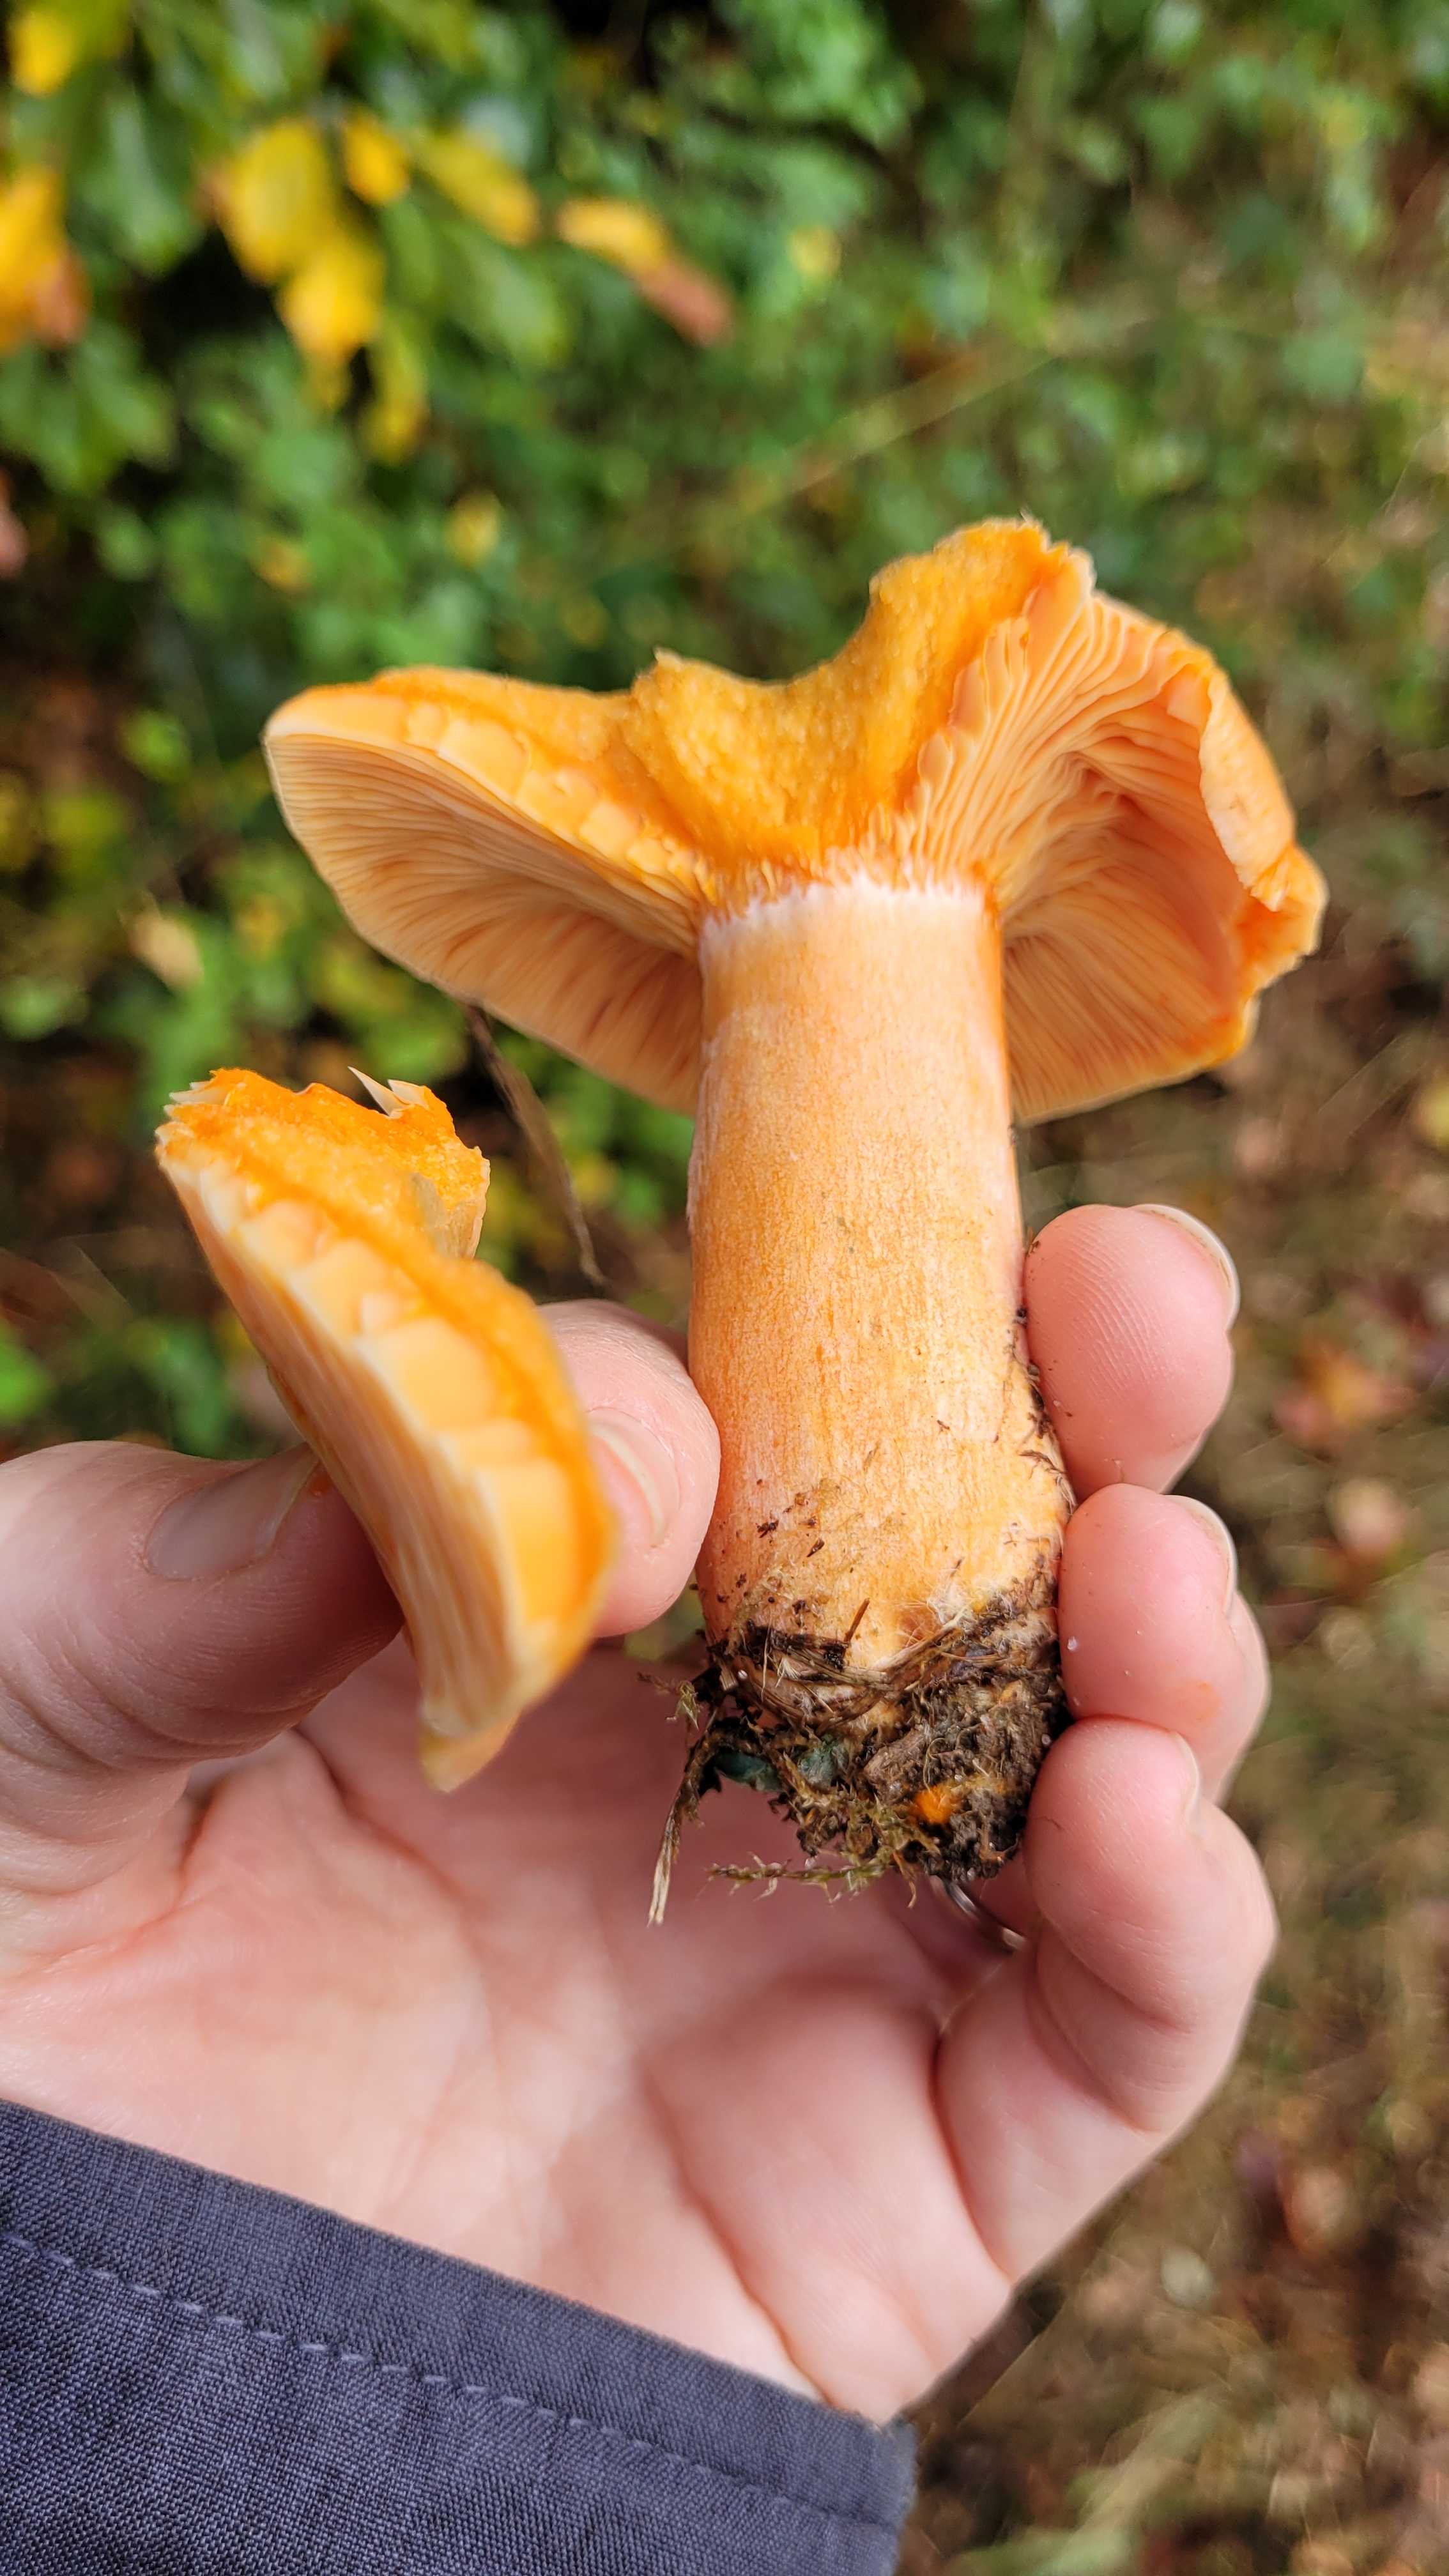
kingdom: Fungi
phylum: Basidiomycota
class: Agaricomycetes
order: Russulales
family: Russulaceae
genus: Lactarius
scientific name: Lactarius deterrimus
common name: gran-mælkehat
